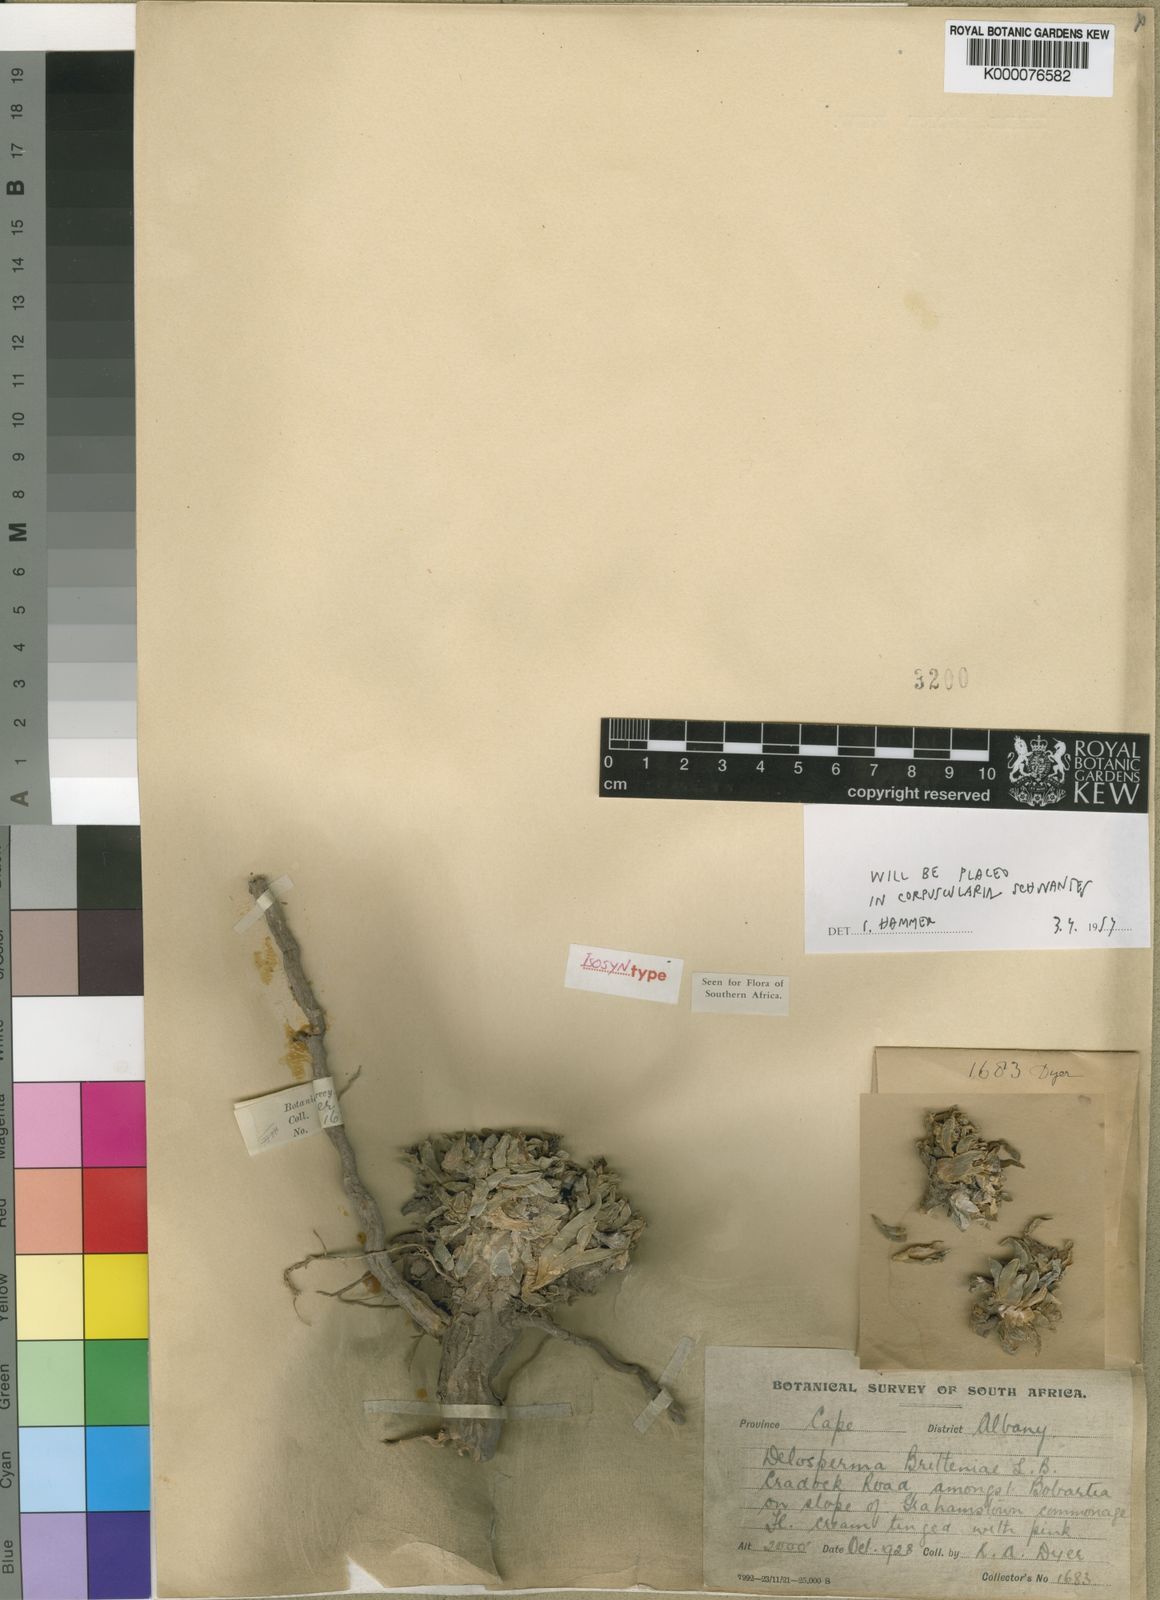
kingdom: Plantae
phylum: Tracheophyta
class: Magnoliopsida
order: Caryophyllales
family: Aizoaceae
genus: Corpuscularia
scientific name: Corpuscularia britteniae
